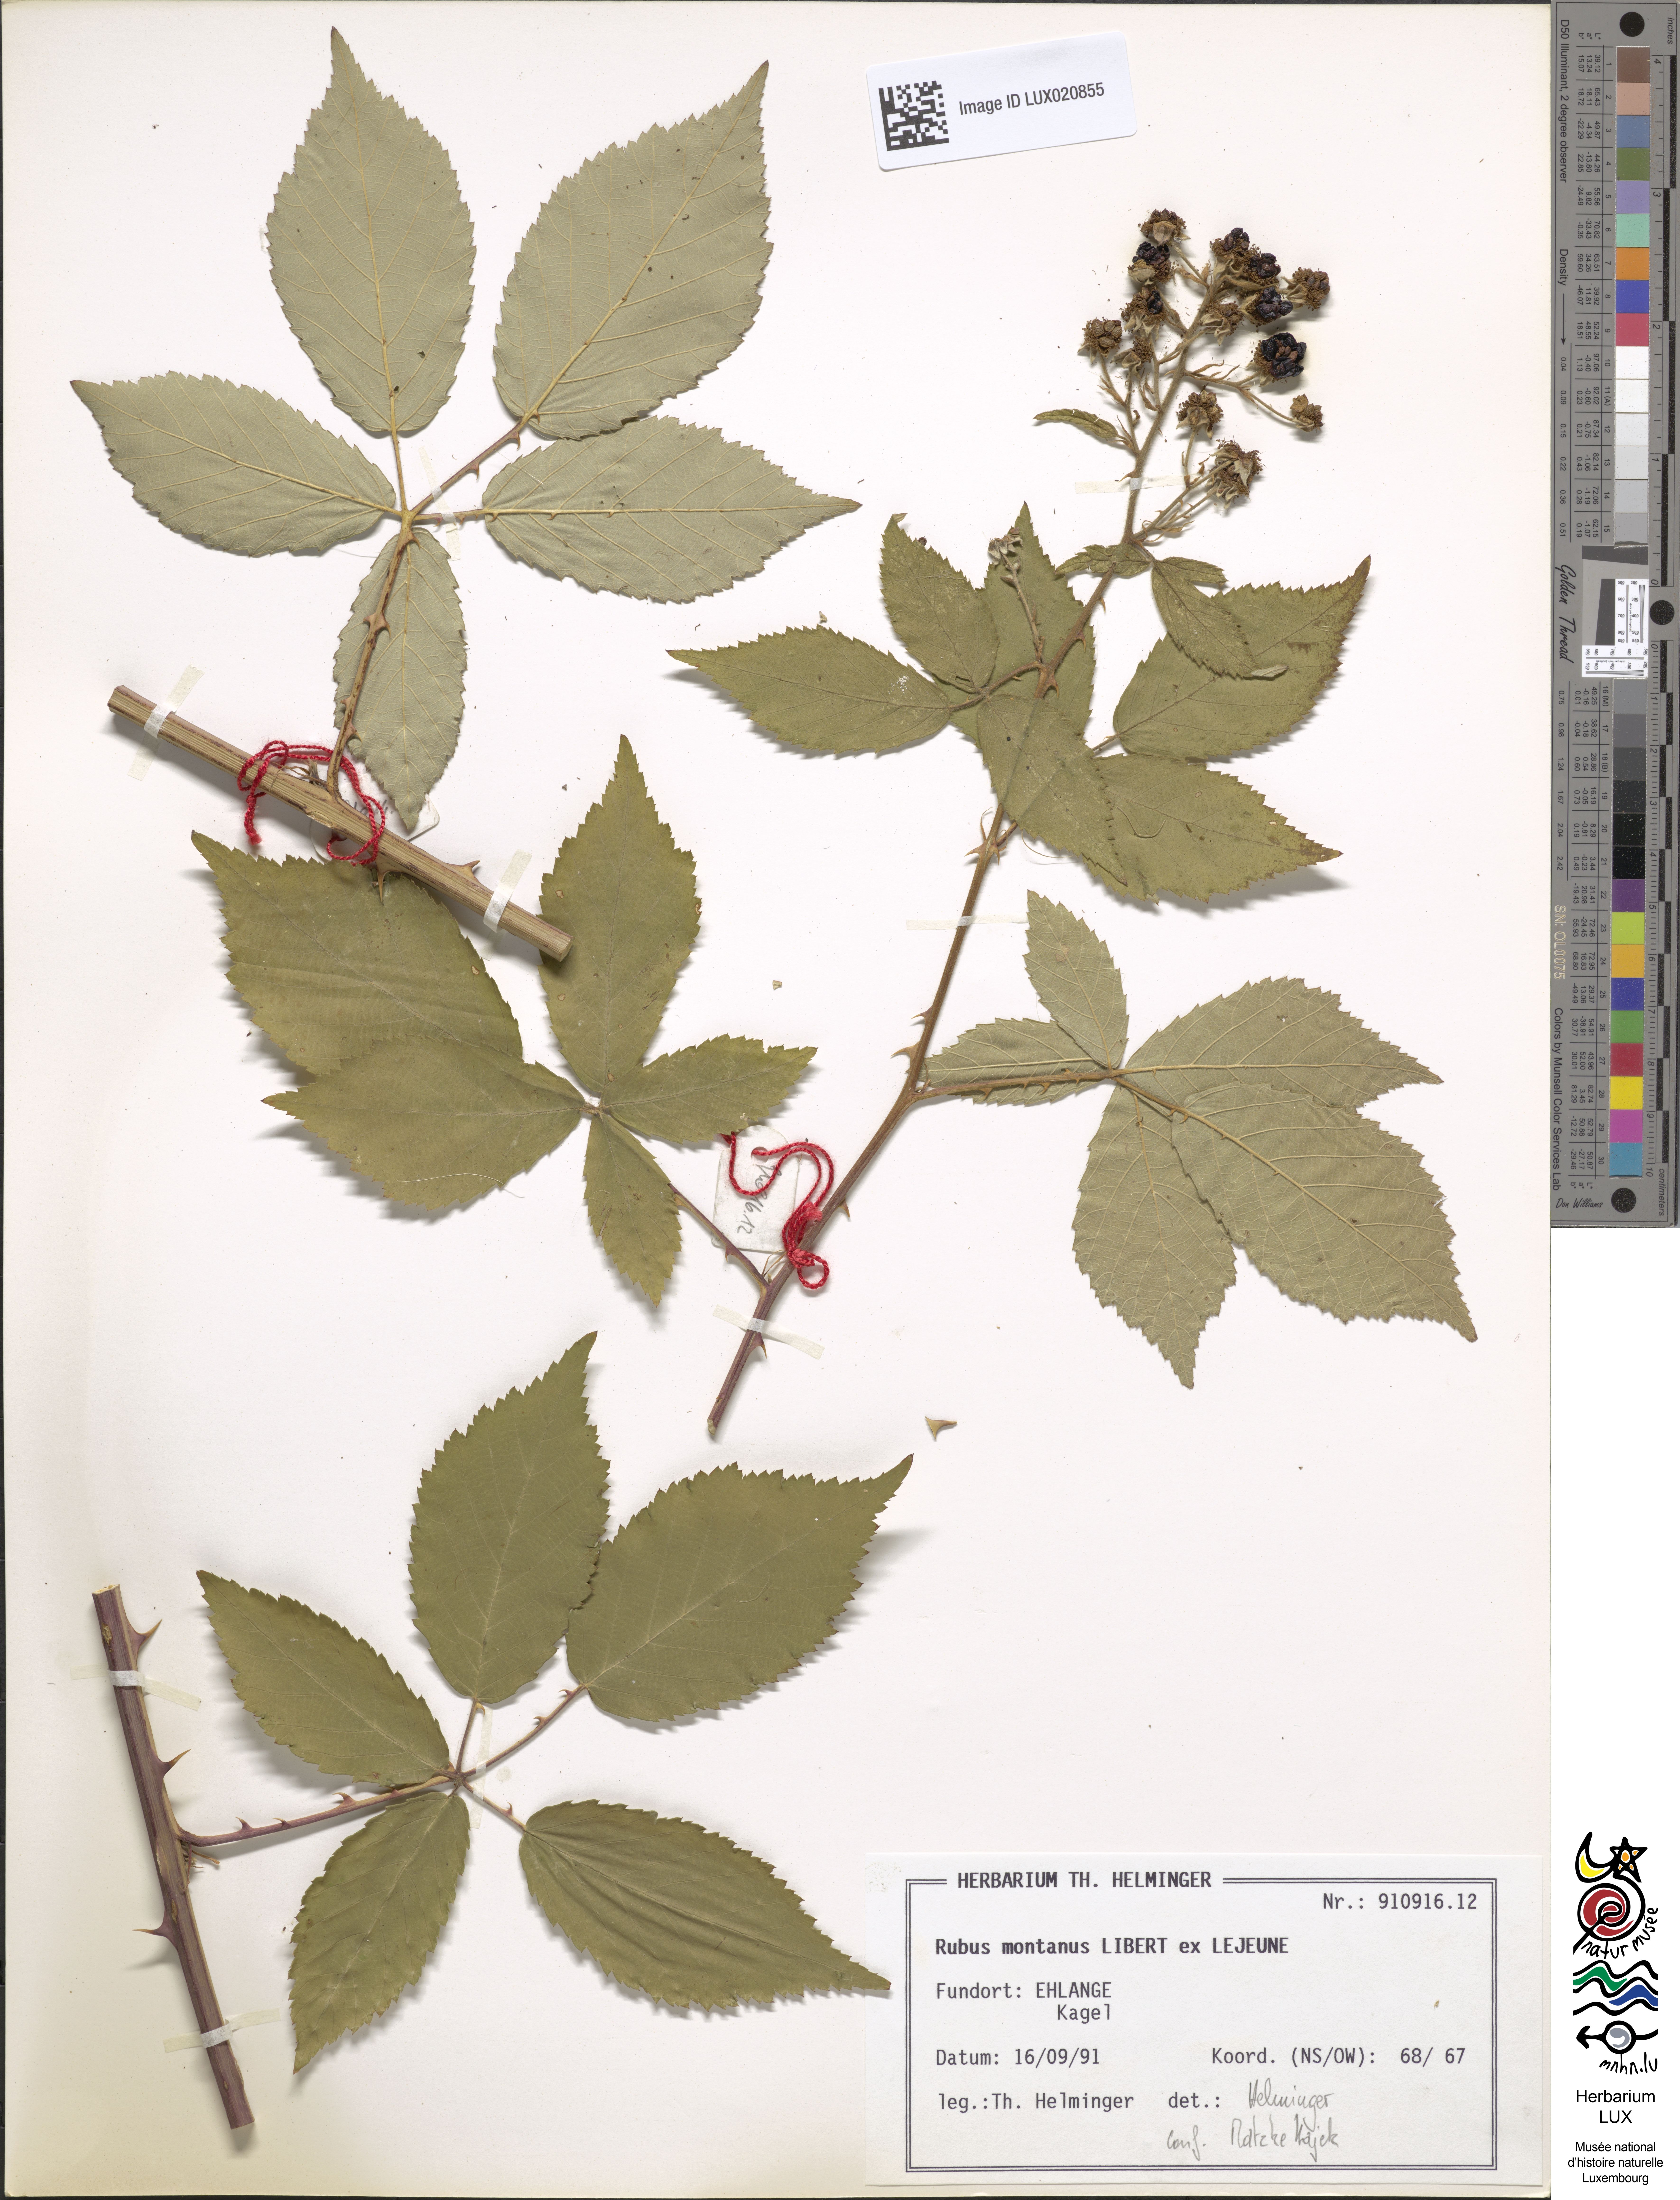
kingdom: Plantae
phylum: Tracheophyta
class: Magnoliopsida
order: Rosales
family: Rosaceae
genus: Rubus
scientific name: Rubus montanus
